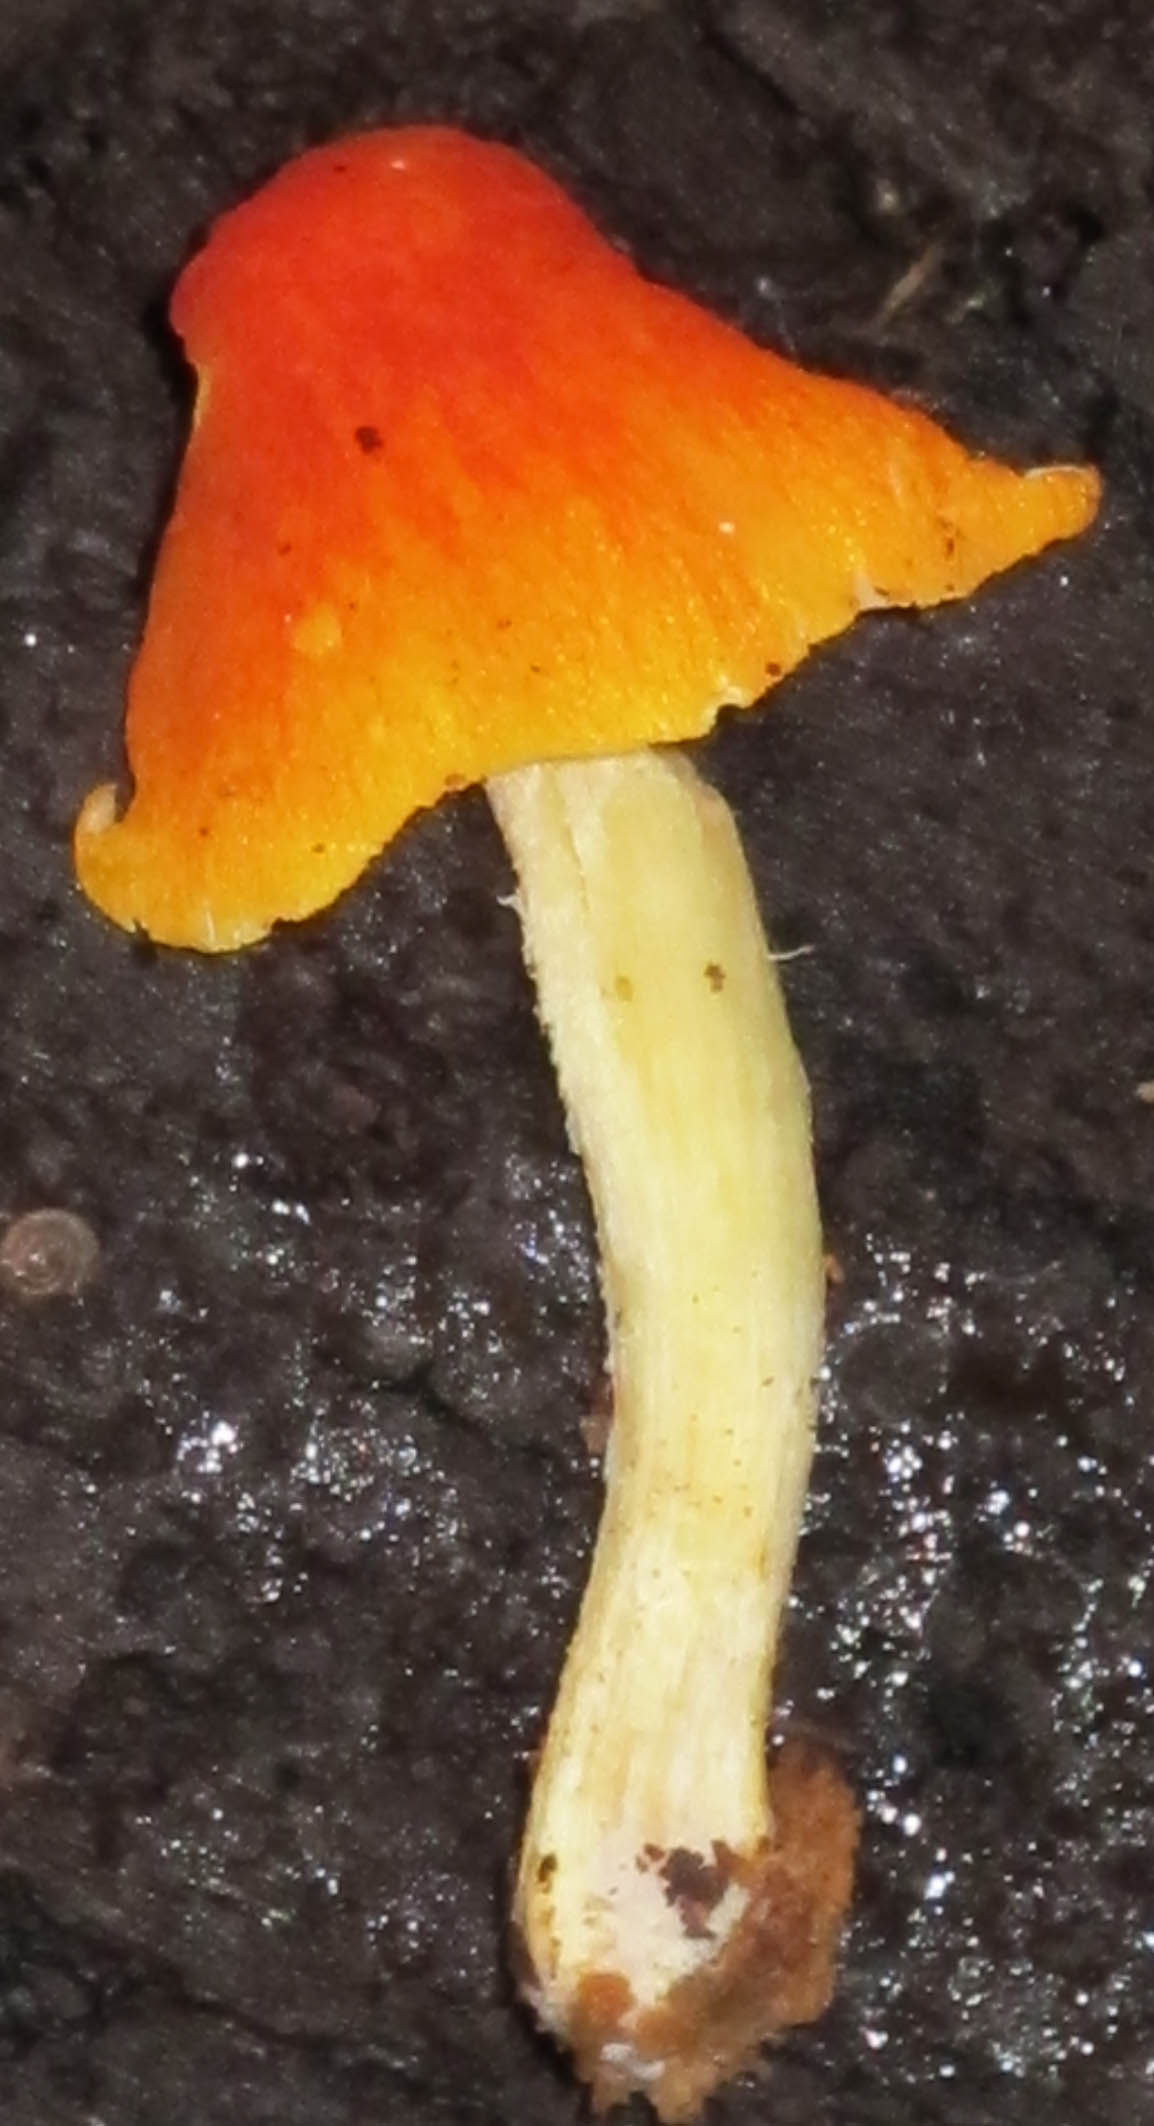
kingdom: Fungi
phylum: Basidiomycota
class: Agaricomycetes
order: Agaricales
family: Pluteaceae
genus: Pluteus
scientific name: Pluteus aurantiorugosus
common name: skarlagen-skærmhat
